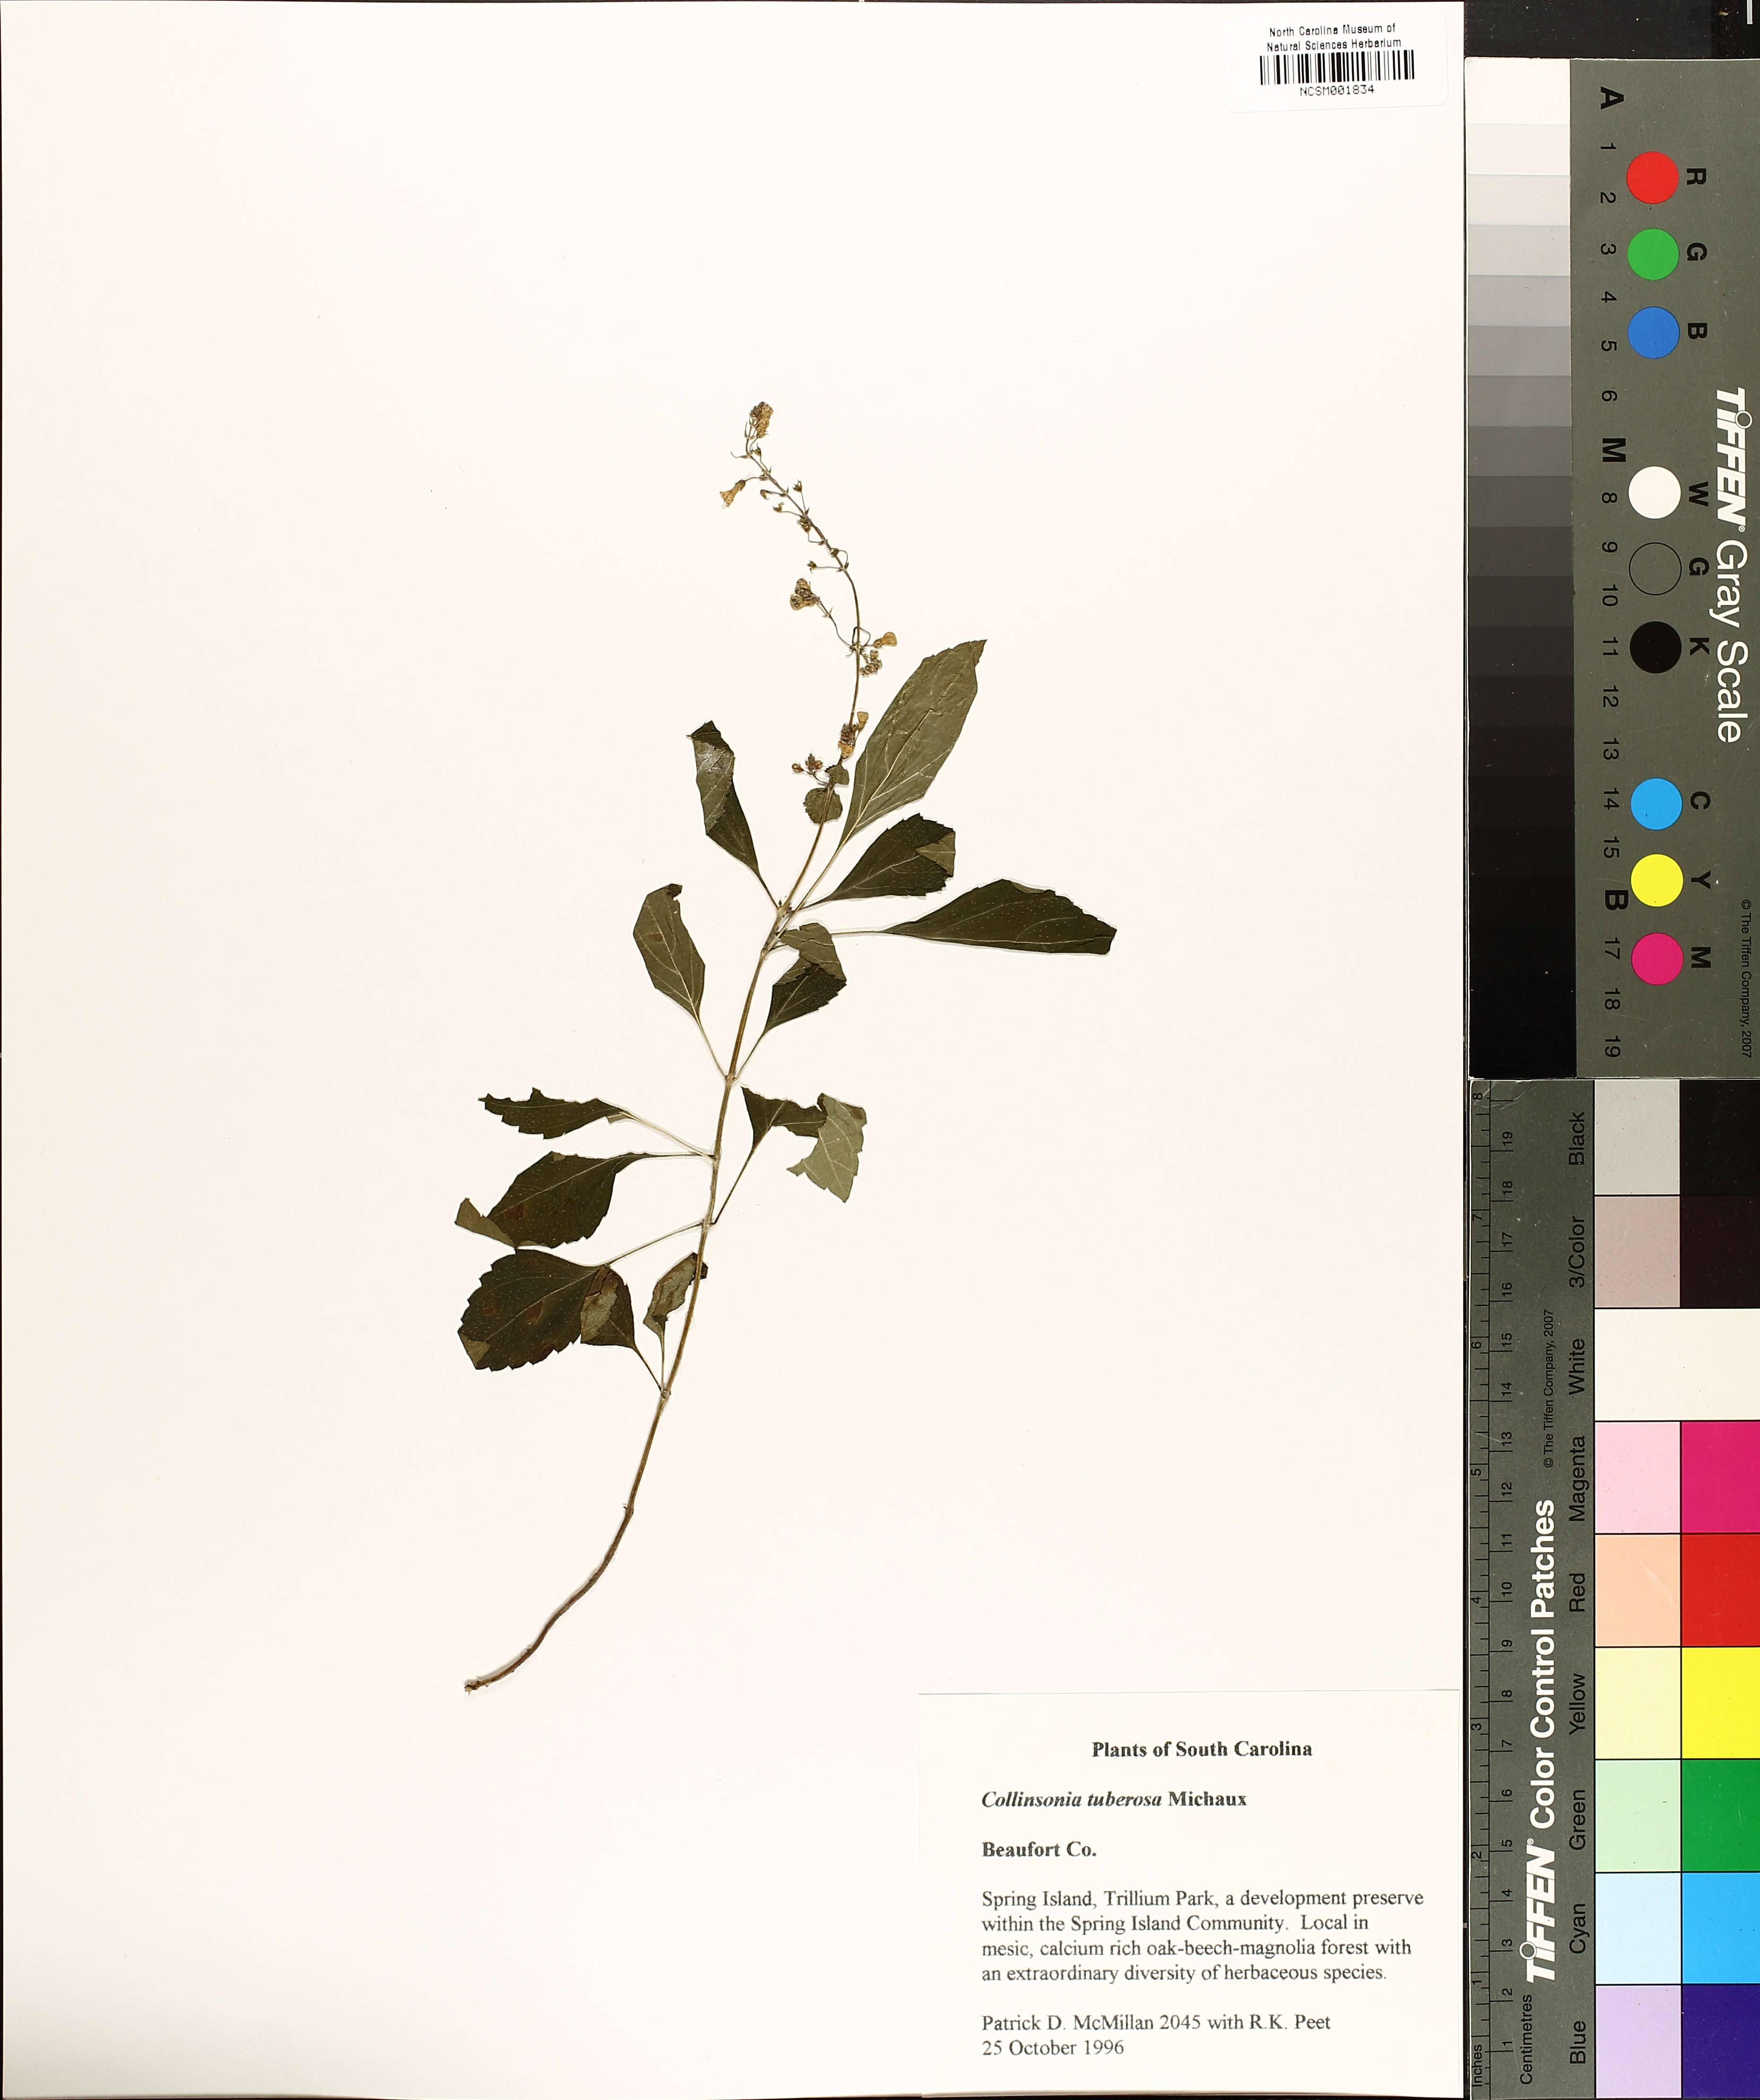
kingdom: Plantae
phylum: Tracheophyta
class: Magnoliopsida
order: Lamiales
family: Lamiaceae
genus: Collinsonia
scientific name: Collinsonia canadensis
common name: Northern horsebalm
